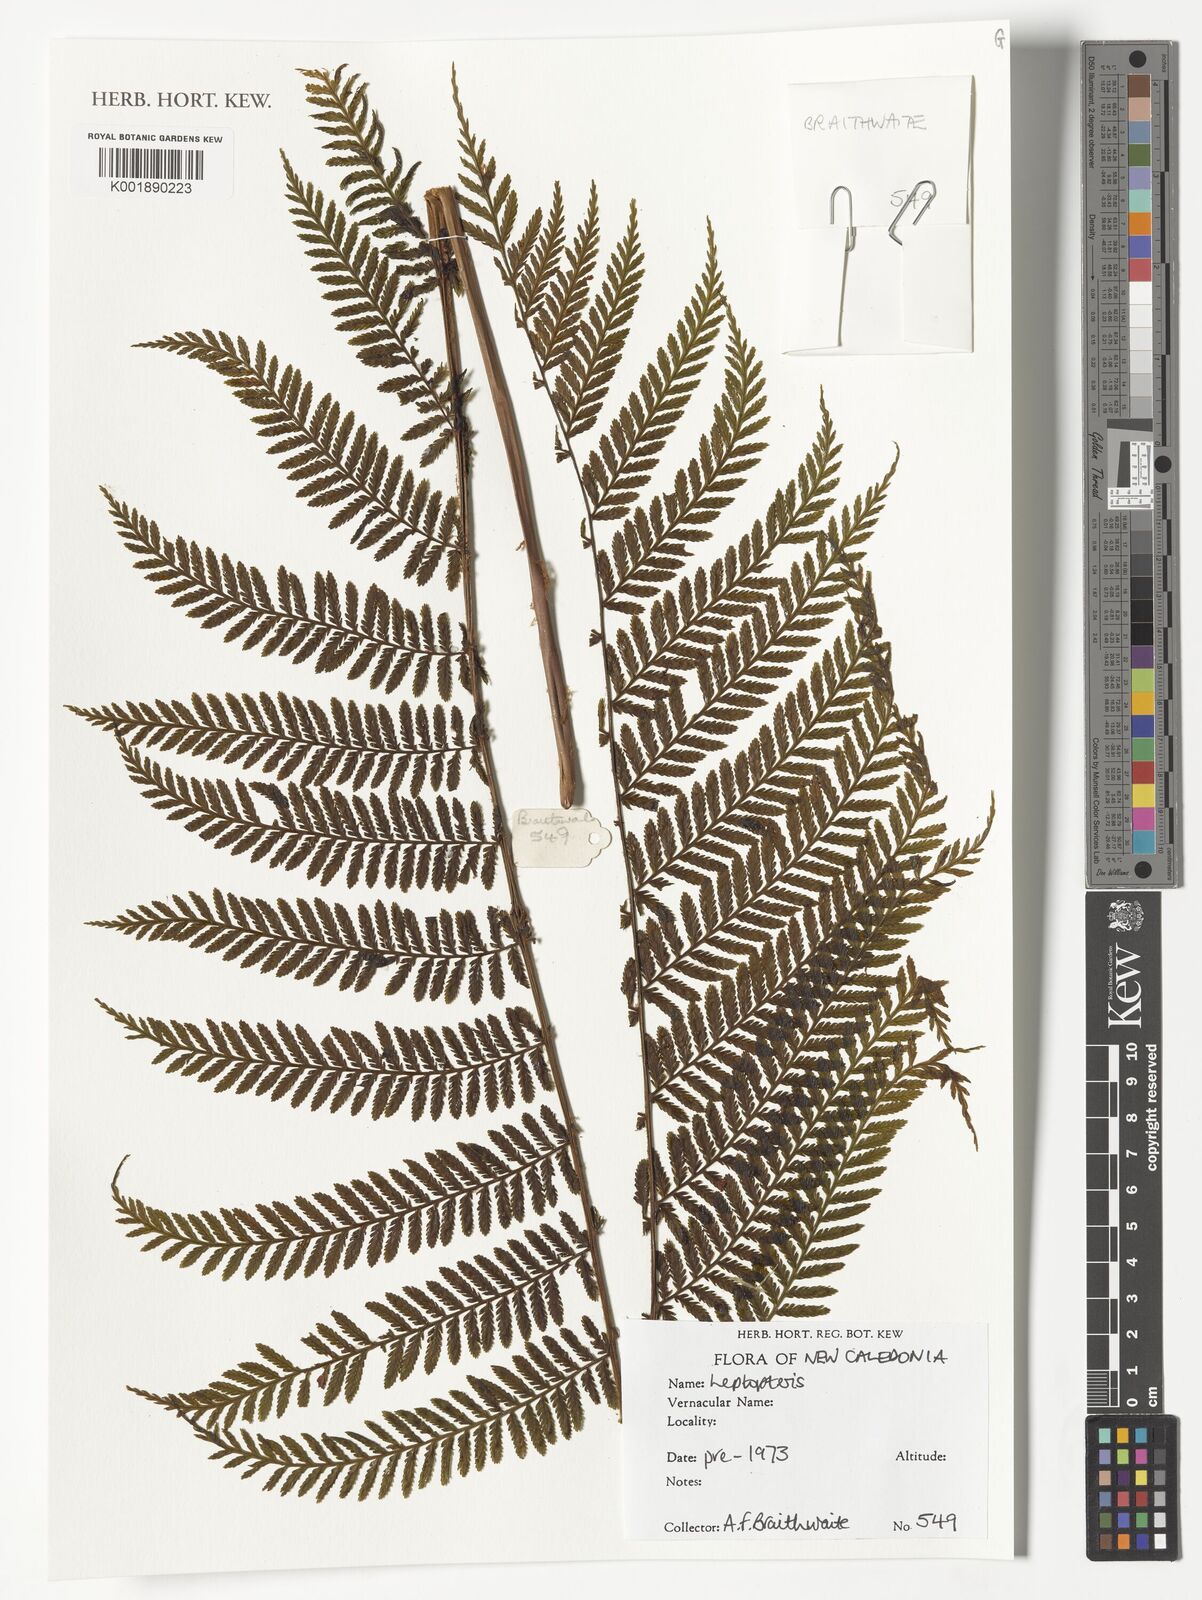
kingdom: Plantae
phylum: Tracheophyta
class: Polypodiopsida
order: Osmundales
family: Osmundaceae
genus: Leptopteris
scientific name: Leptopteris
